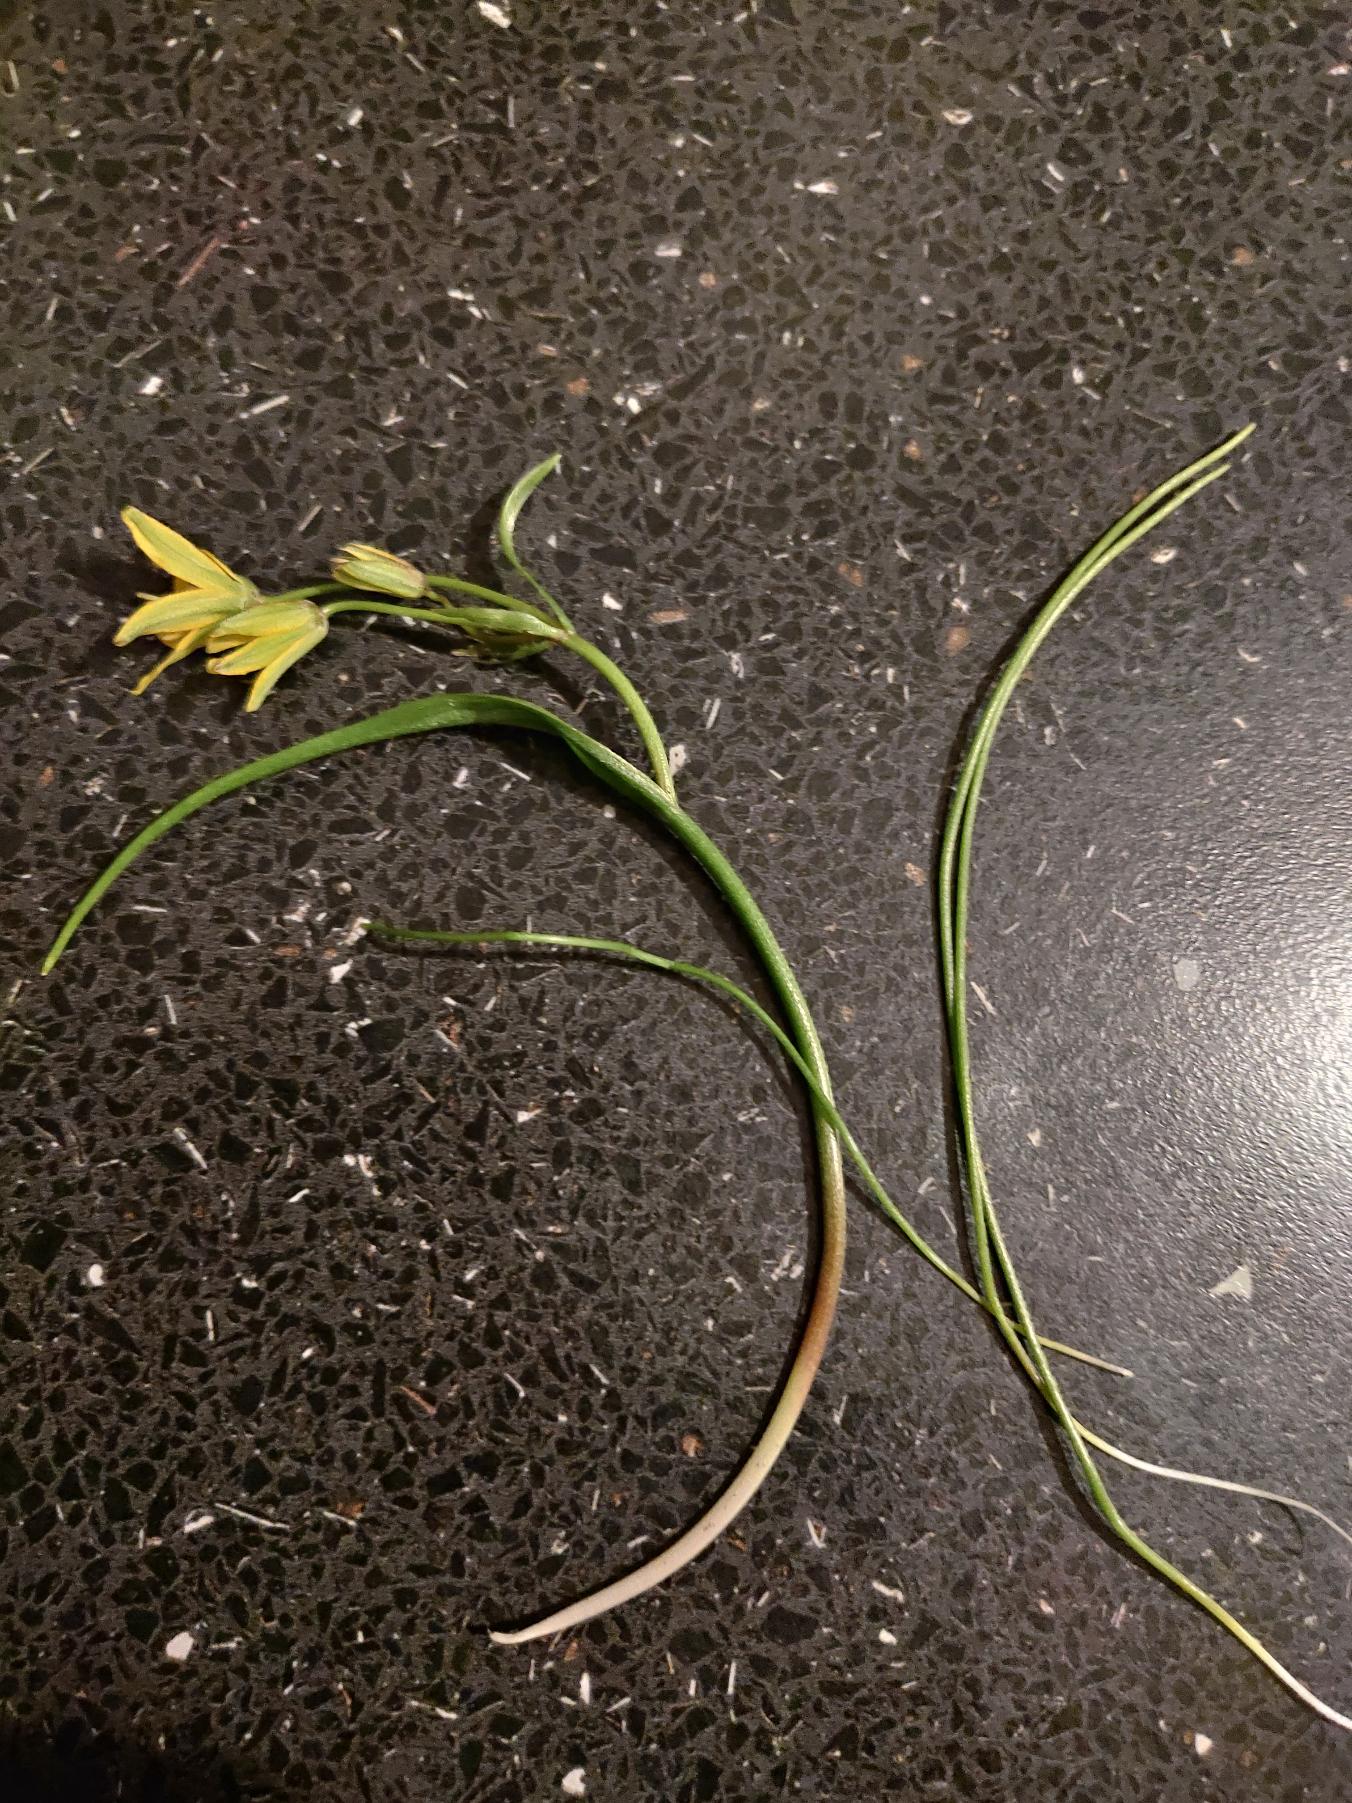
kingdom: Plantae
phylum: Tracheophyta
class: Liliopsida
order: Liliales
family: Liliaceae
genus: Gagea
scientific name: Gagea spathacea
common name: Hylster-guldstjerne
